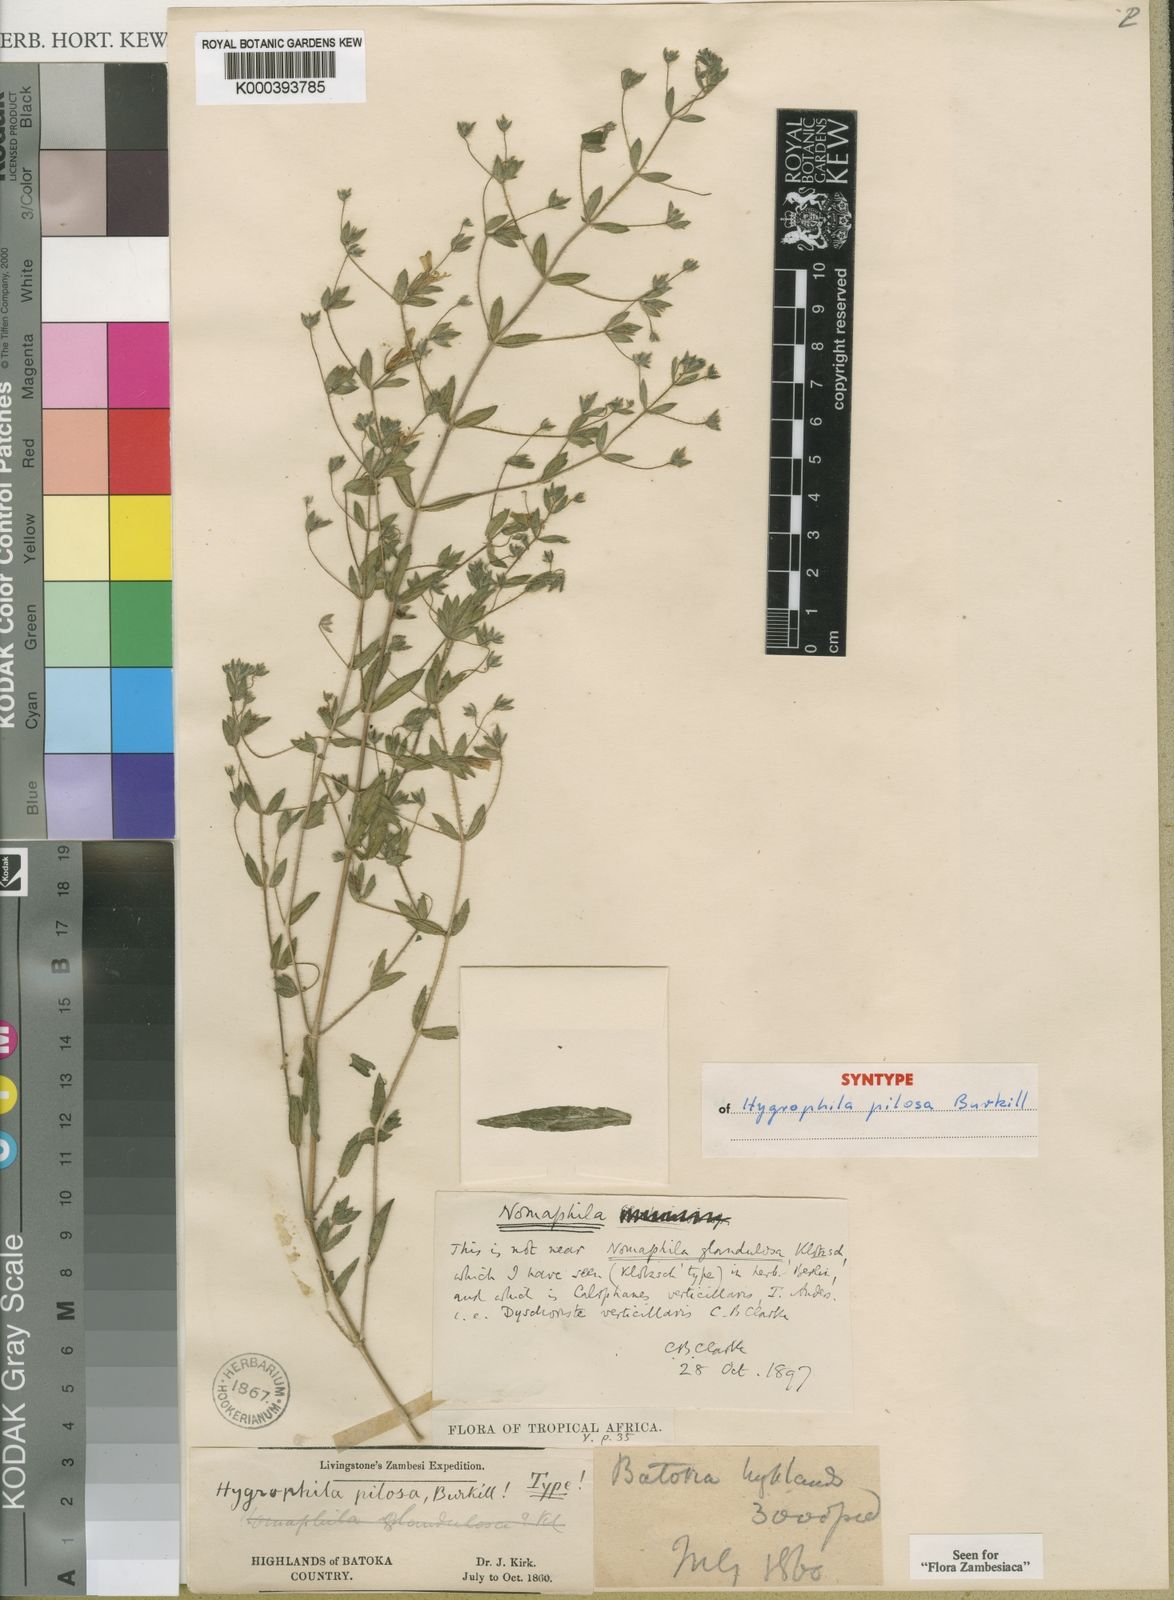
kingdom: Plantae
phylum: Tracheophyta
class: Magnoliopsida
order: Lamiales
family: Acanthaceae
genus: Hygrophila
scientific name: Hygrophila acinos
